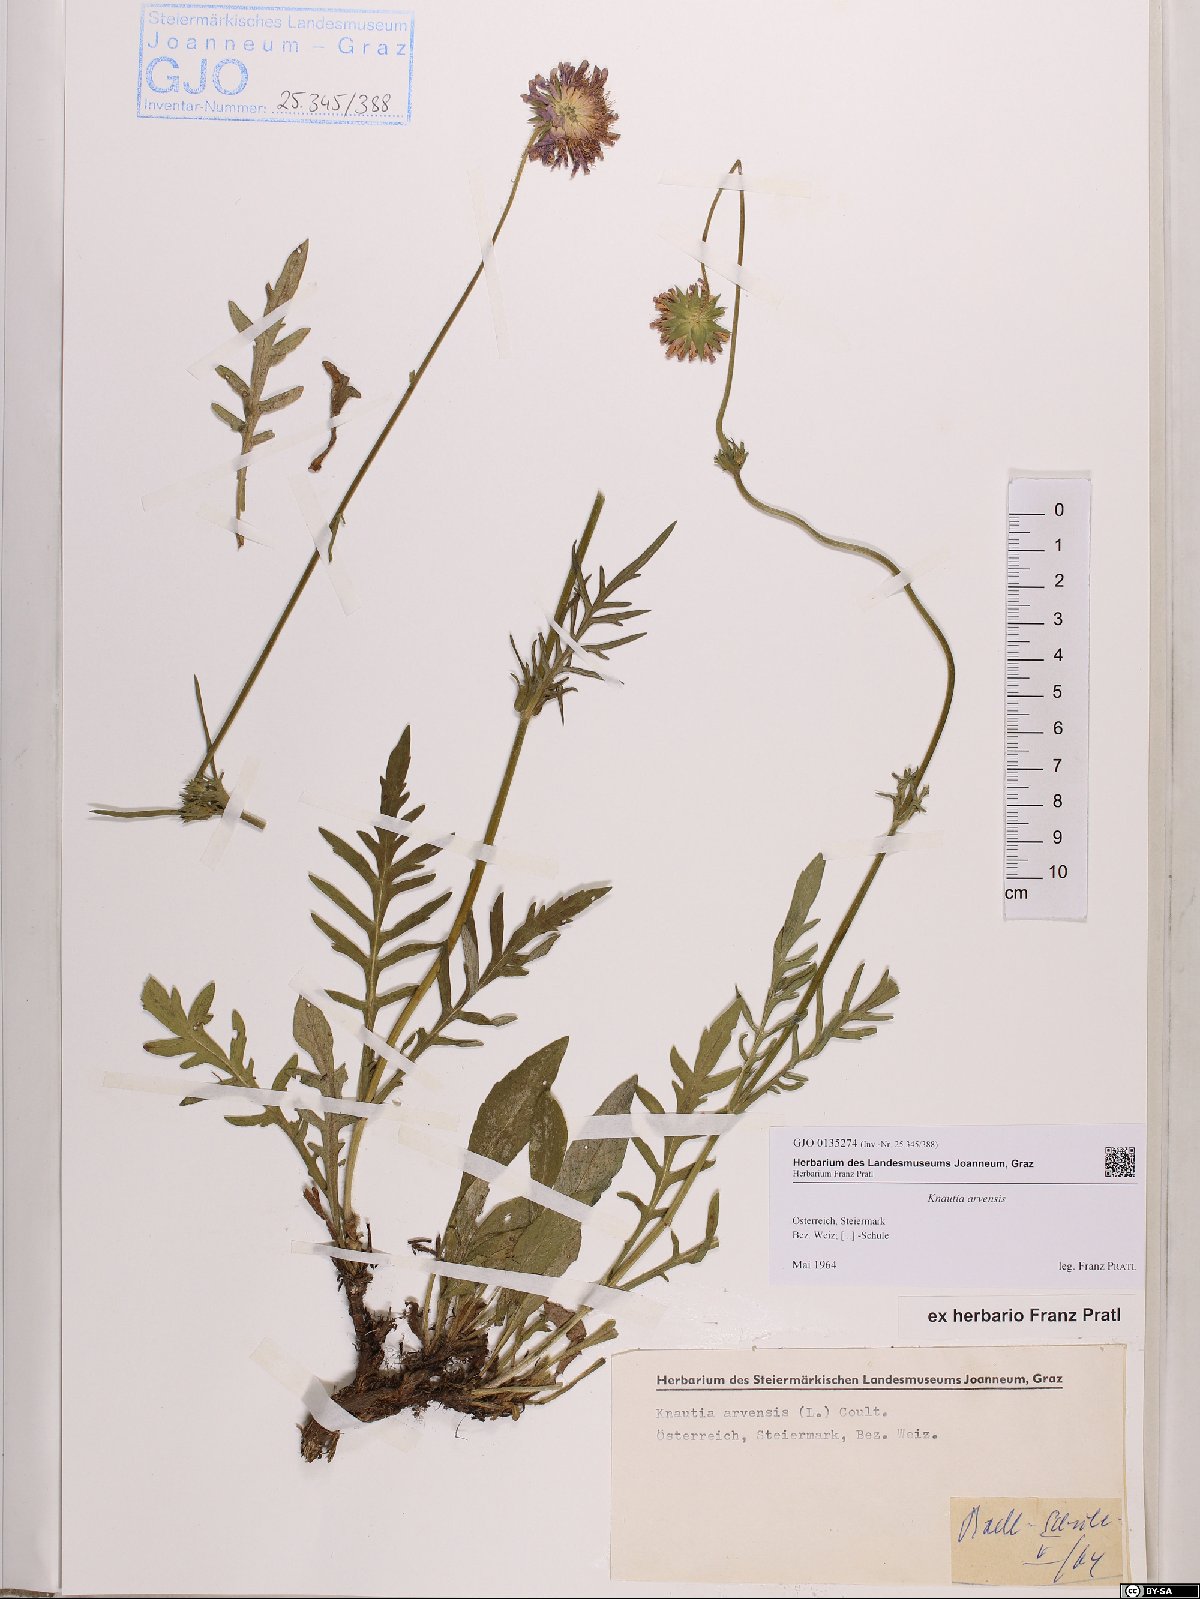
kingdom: Plantae
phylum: Tracheophyta
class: Magnoliopsida
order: Dipsacales
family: Caprifoliaceae
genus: Knautia
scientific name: Knautia arvensis
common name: Field scabiosa
